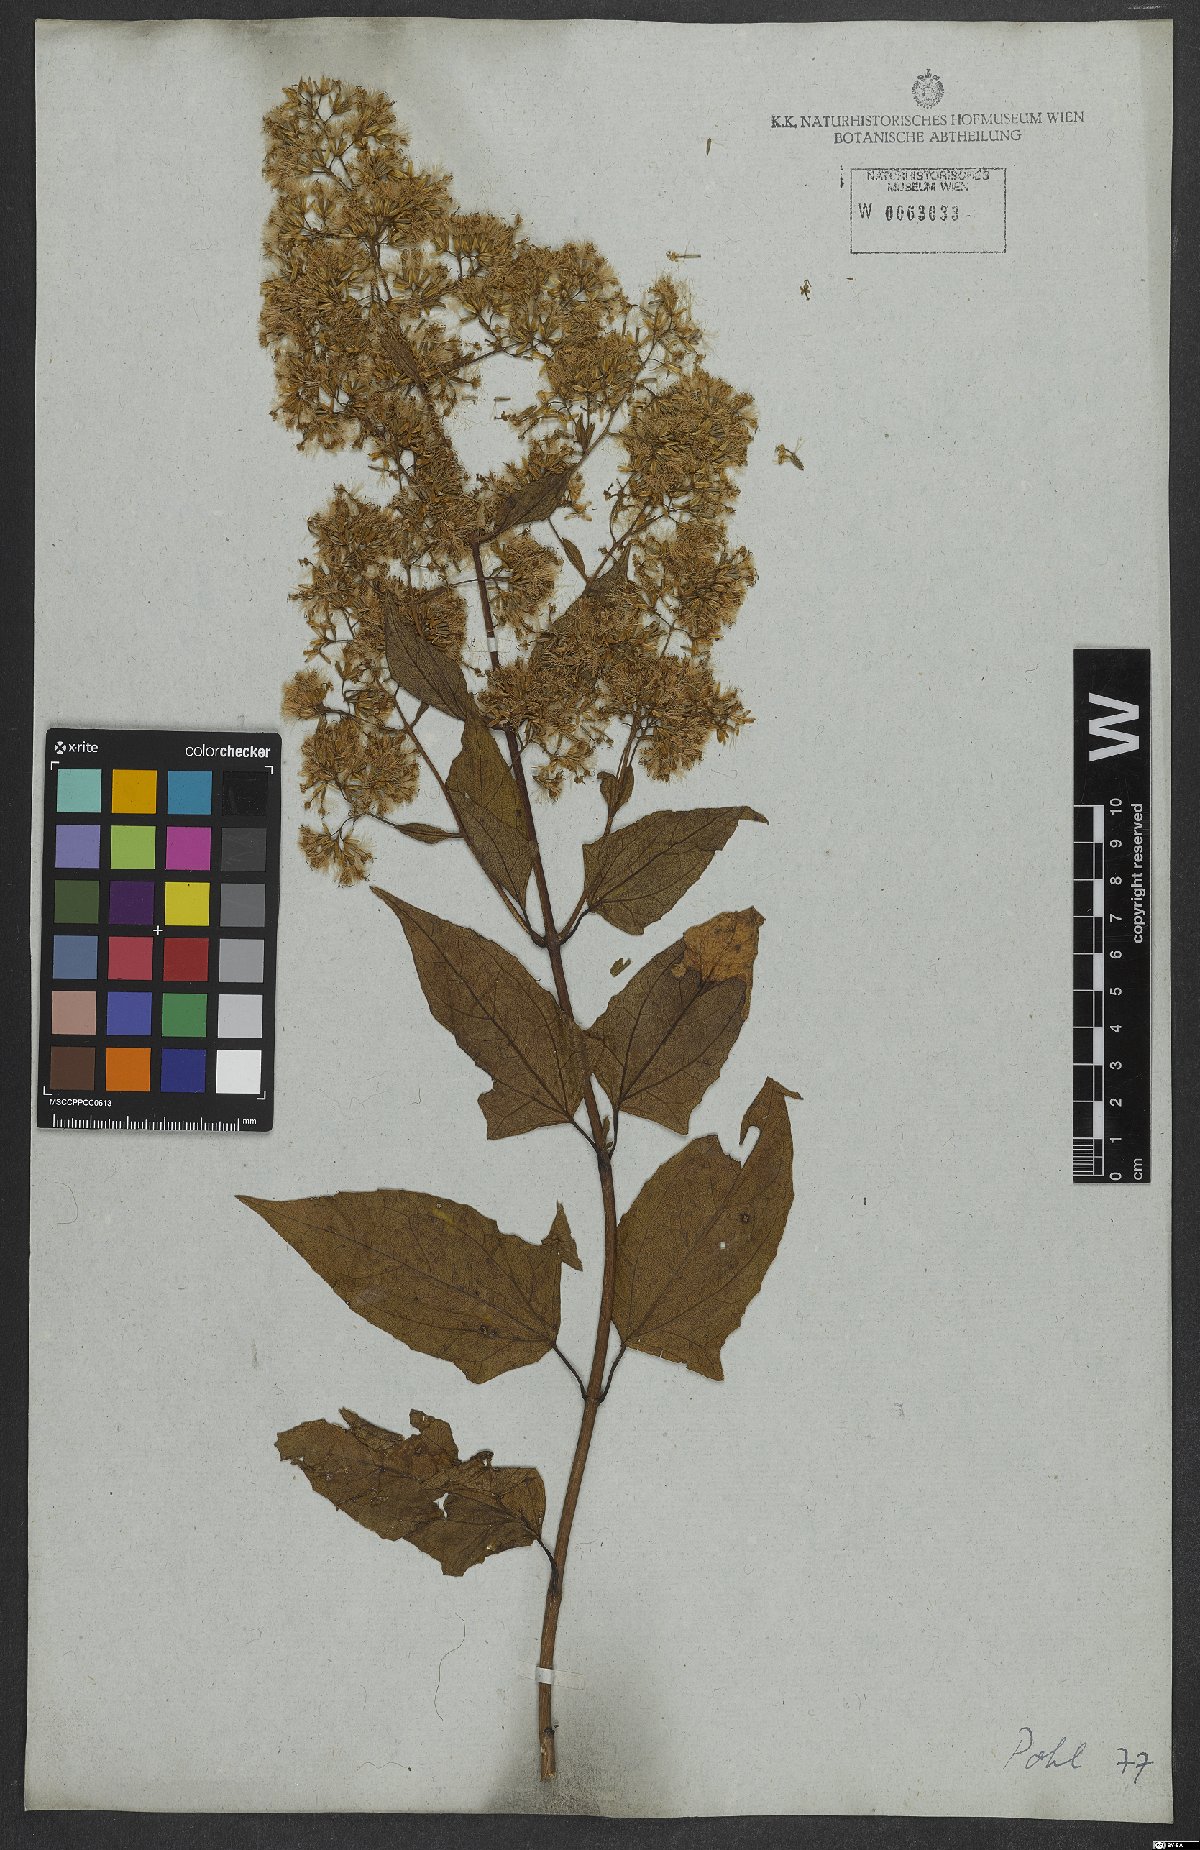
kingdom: Plantae
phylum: Tracheophyta
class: Magnoliopsida
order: Asterales
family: Asteraceae
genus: Mikania
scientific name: Mikania biformis
